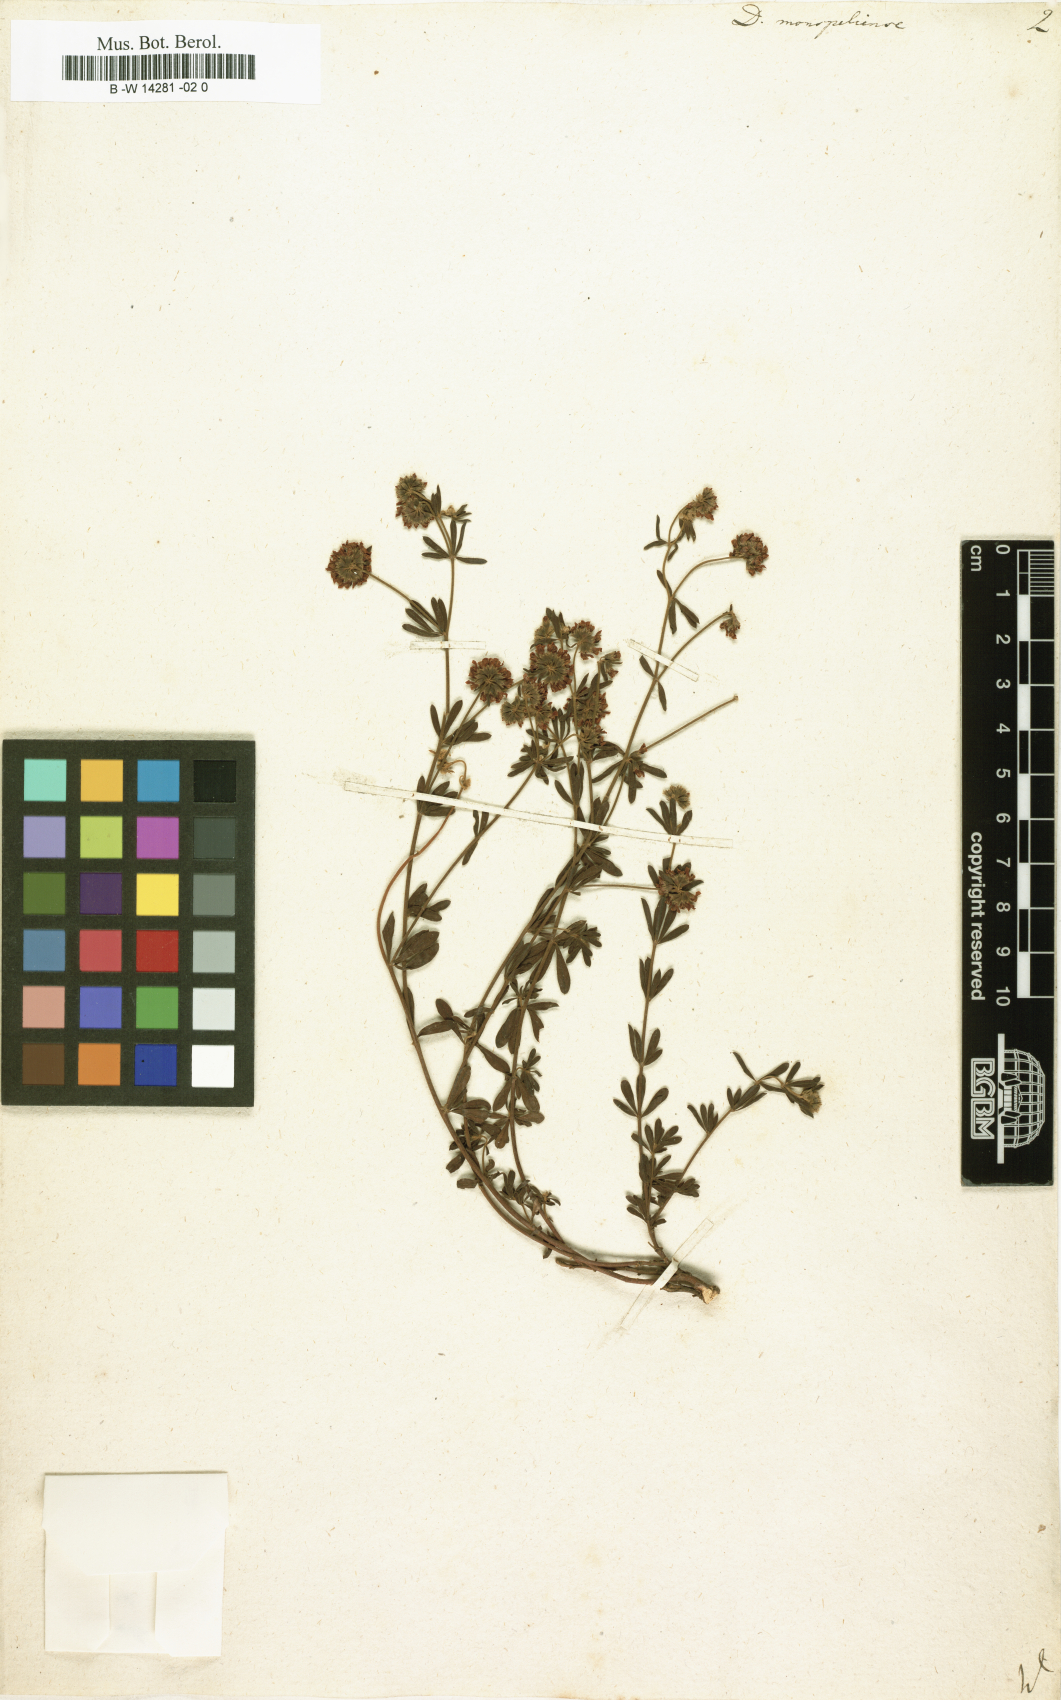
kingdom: Plantae
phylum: Tracheophyta
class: Magnoliopsida
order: Fabales
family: Fabaceae
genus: Lotus
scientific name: Lotus dorycnium
